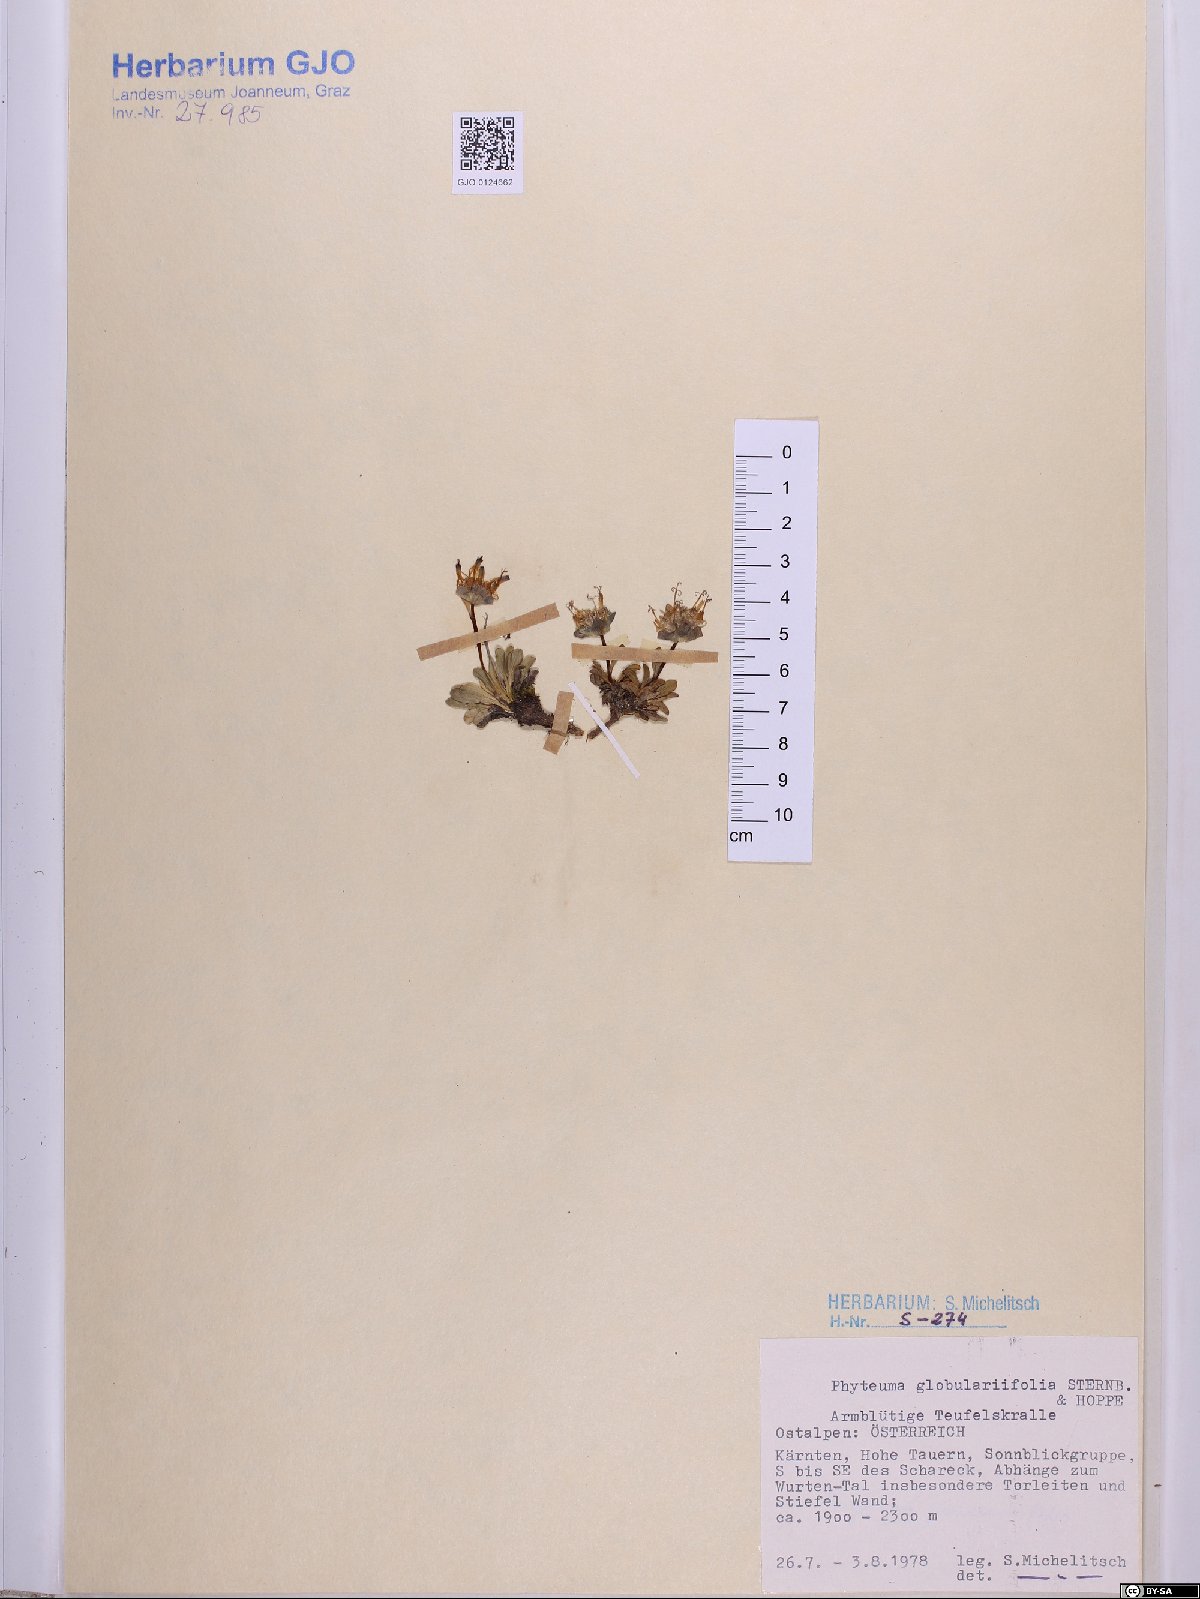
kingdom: Plantae
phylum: Tracheophyta
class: Magnoliopsida
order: Asterales
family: Campanulaceae
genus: Phyteuma
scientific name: Phyteuma globulariifolium
